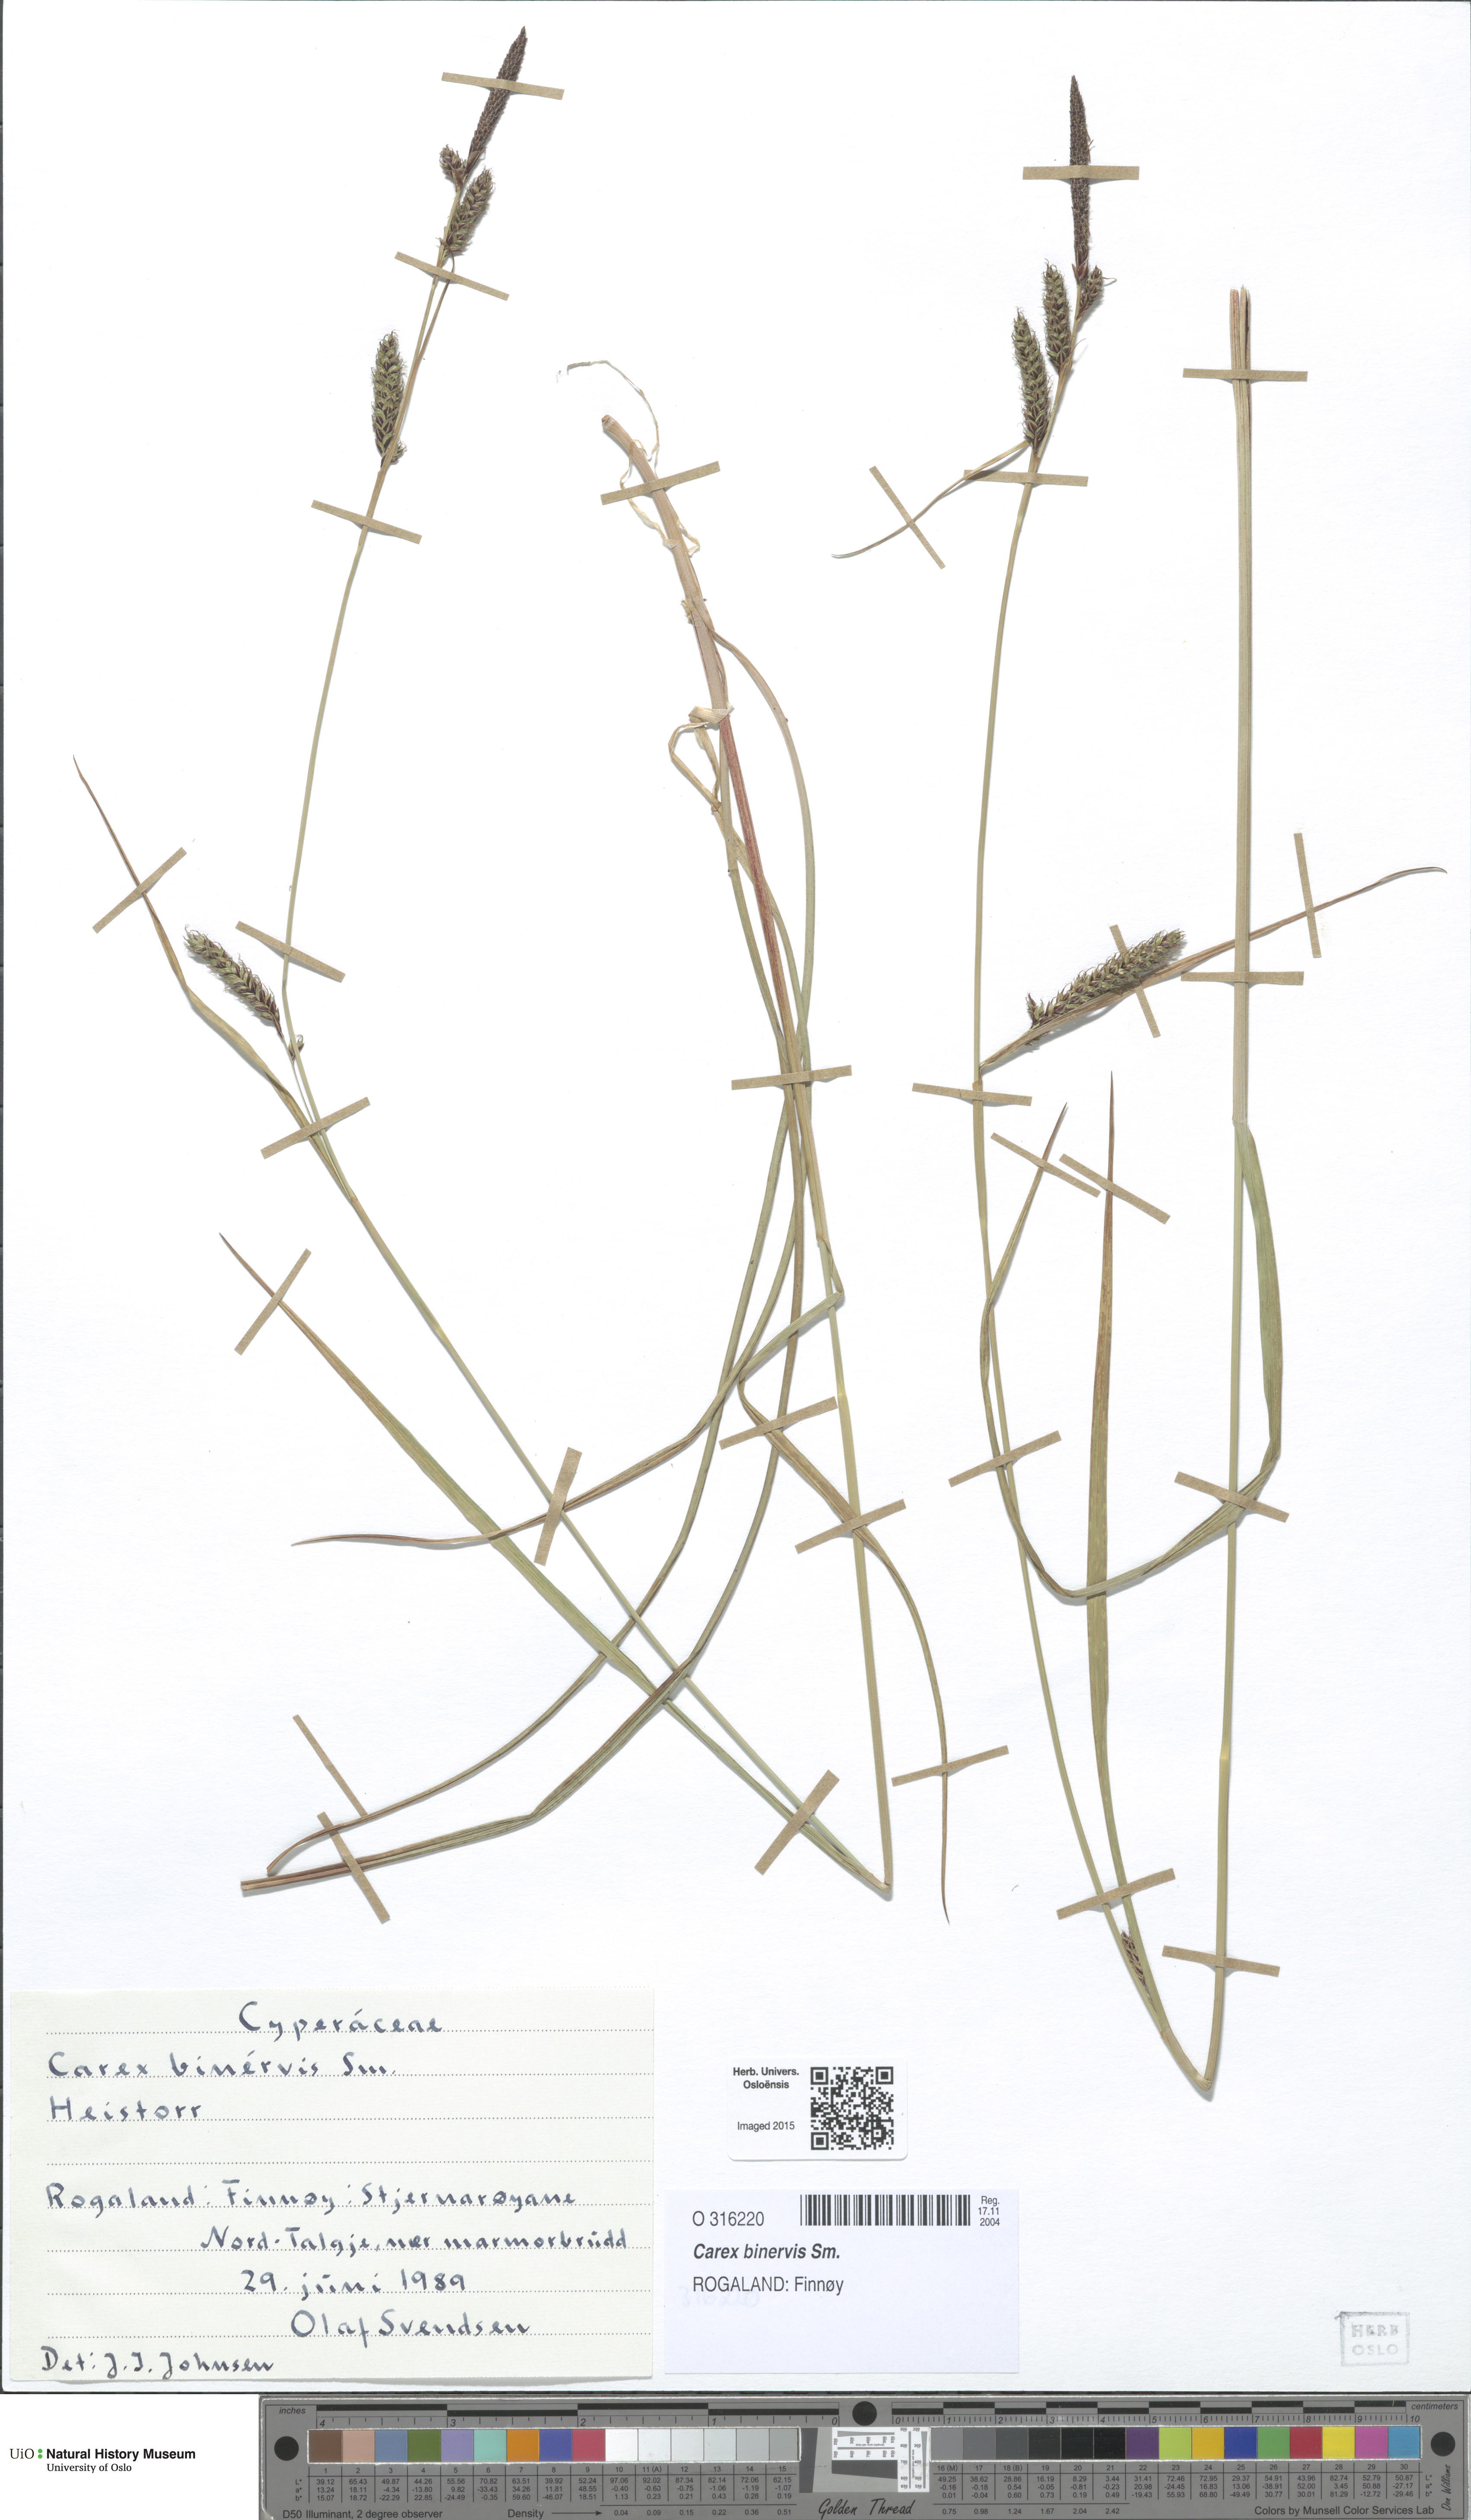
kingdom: Plantae
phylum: Tracheophyta
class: Liliopsida
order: Poales
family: Cyperaceae
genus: Carex
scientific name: Carex binervis
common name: Green-ribbed sedge
